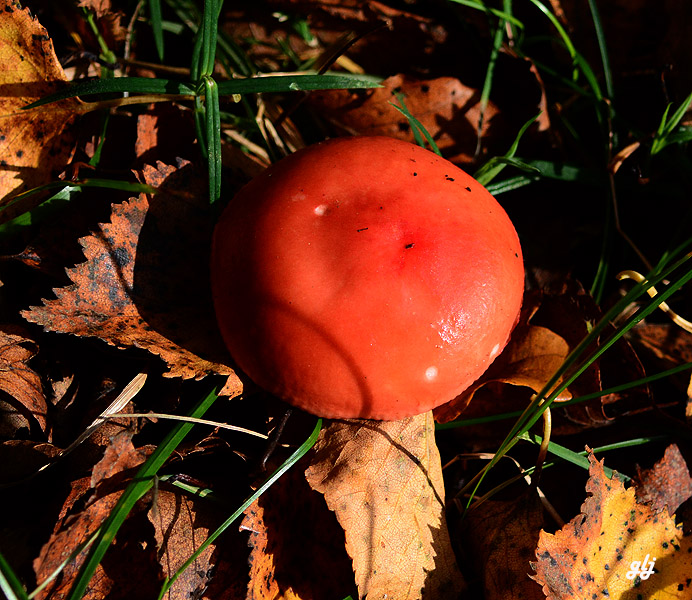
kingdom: Fungi
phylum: Basidiomycota
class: Agaricomycetes
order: Russulales
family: Russulaceae
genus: Russula
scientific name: Russula
